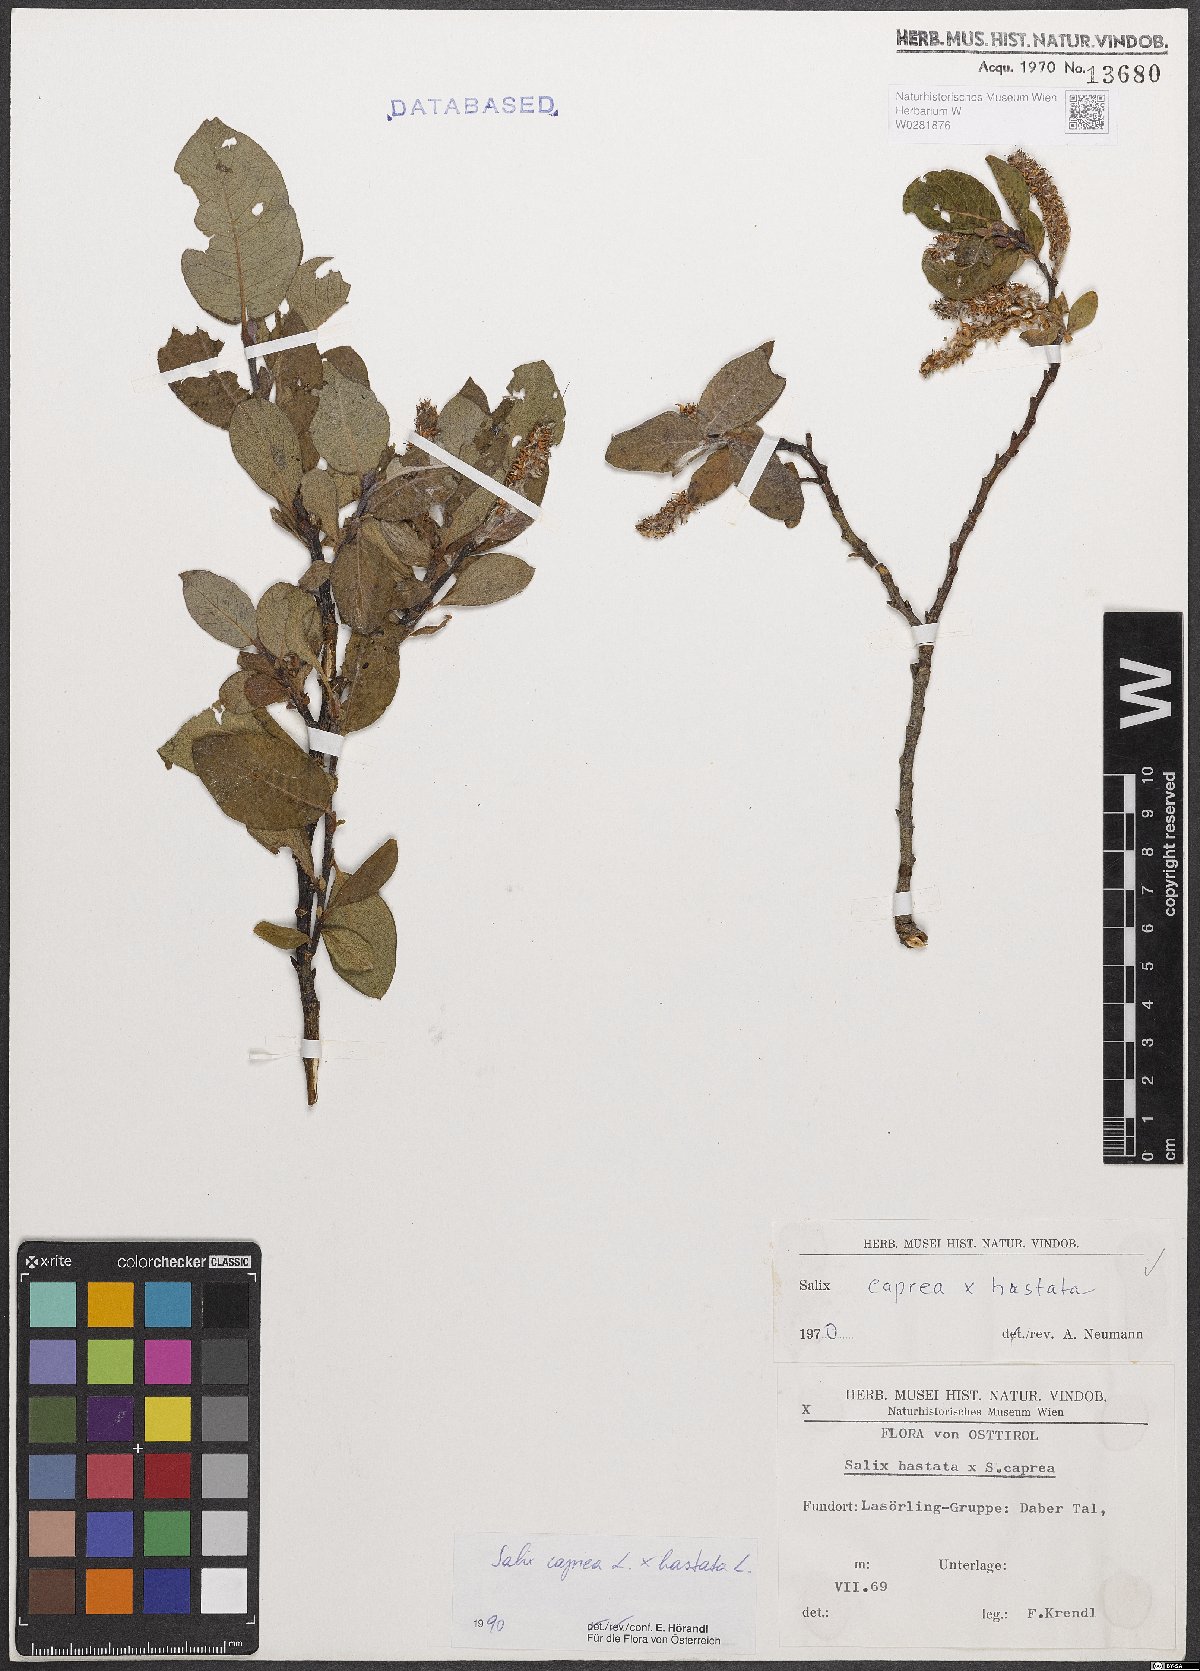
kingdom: Plantae
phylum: Tracheophyta
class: Magnoliopsida
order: Malpighiales
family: Salicaceae
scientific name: Salicaceae
